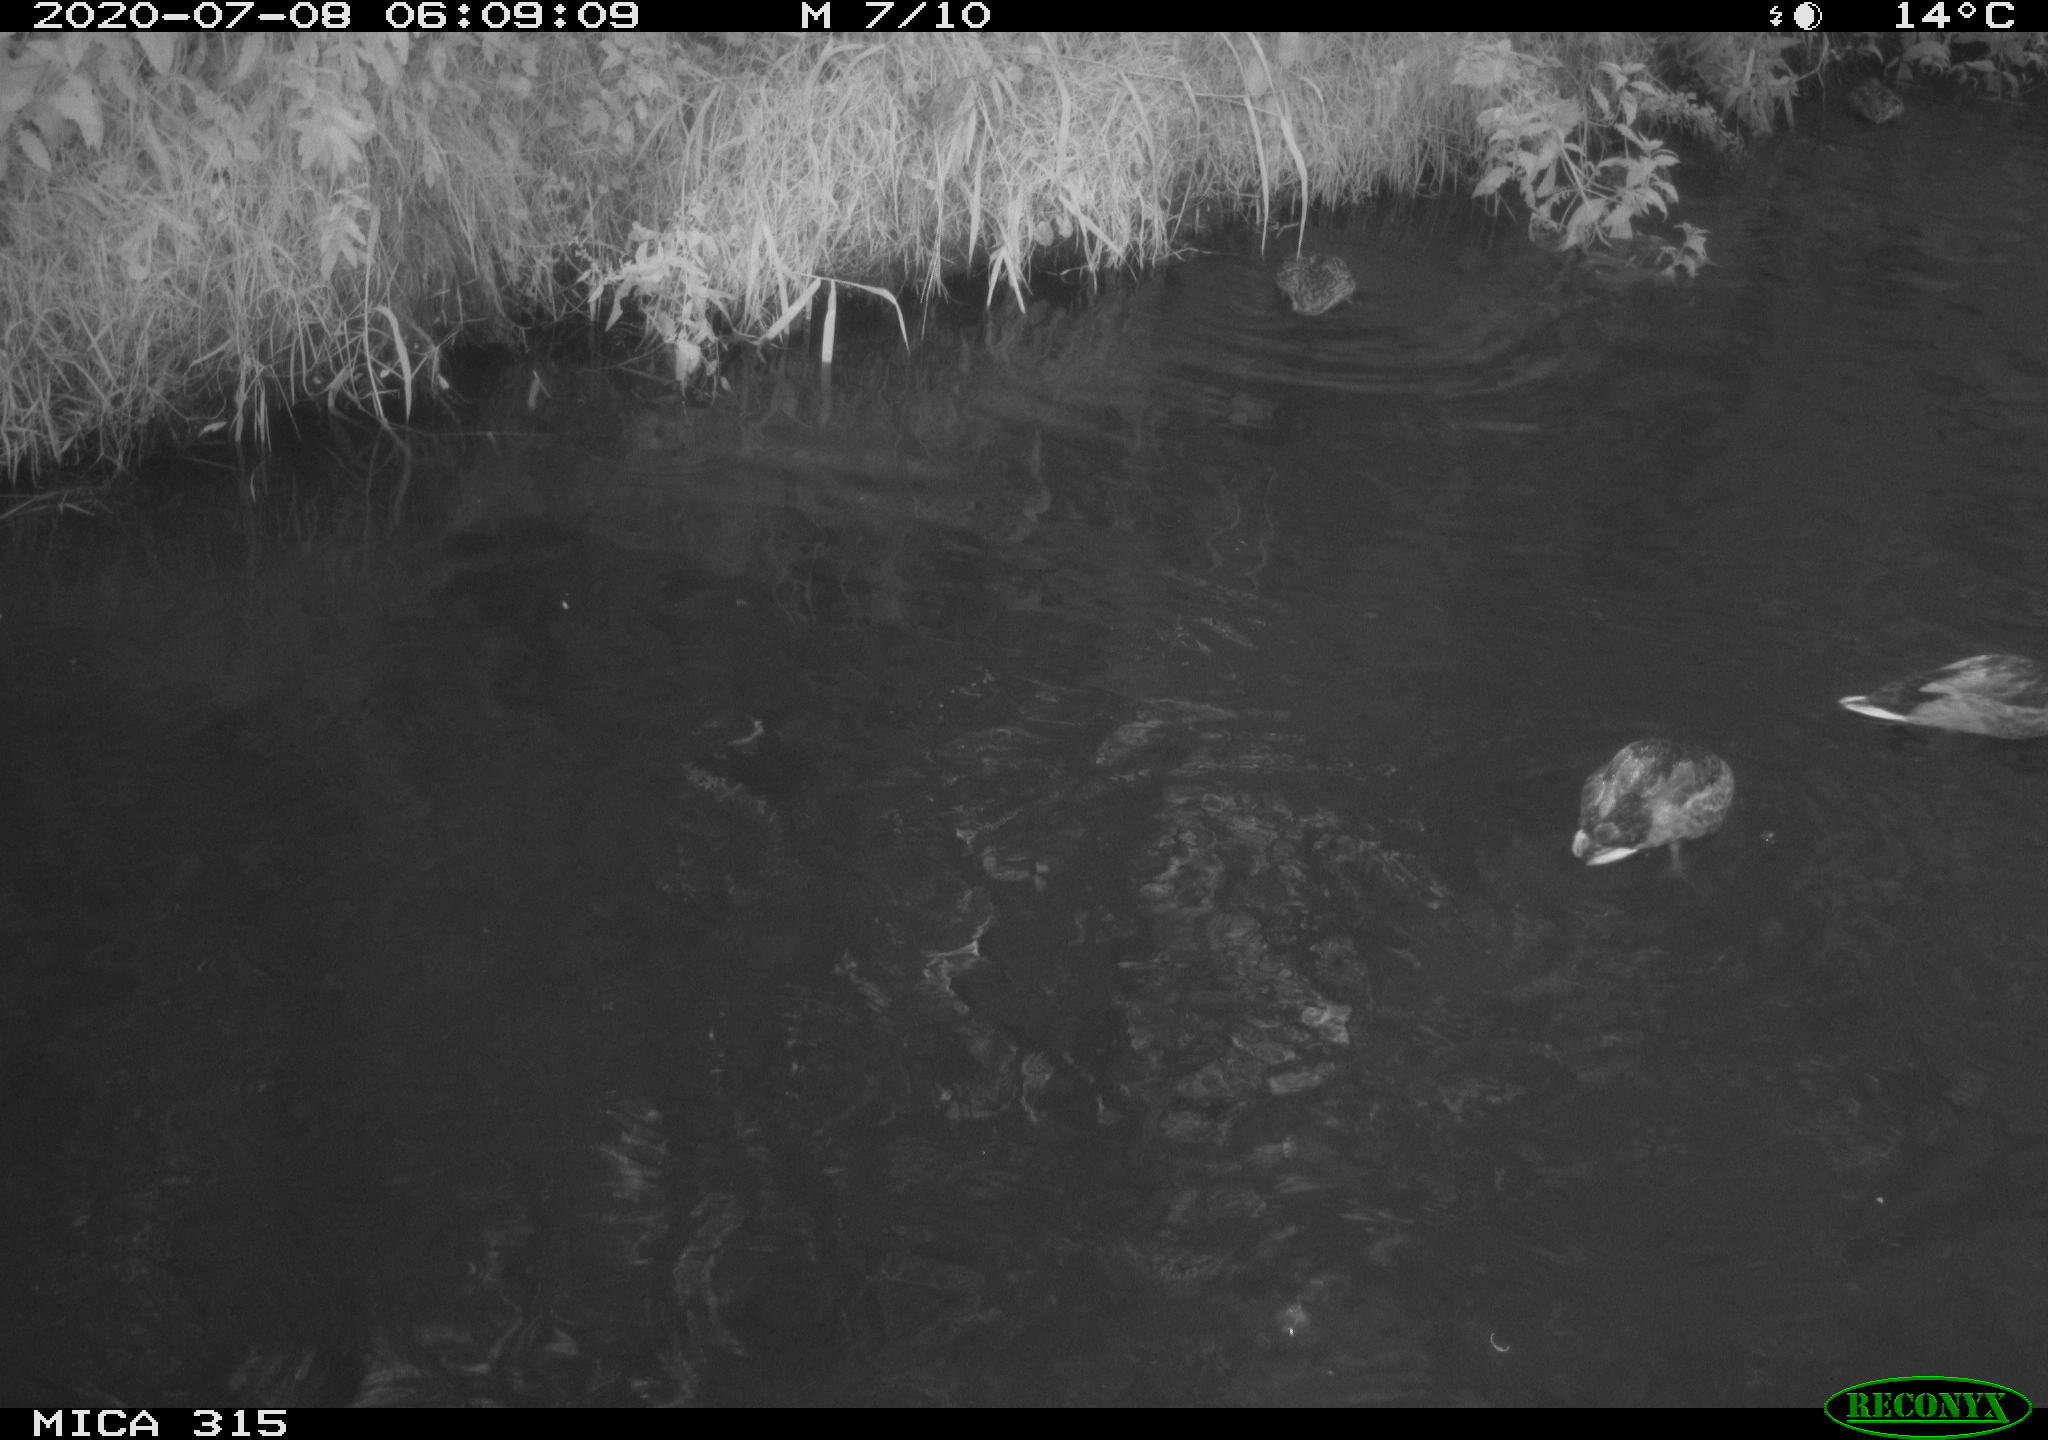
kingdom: Animalia
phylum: Chordata
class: Aves
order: Anseriformes
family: Anatidae
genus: Anas
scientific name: Anas platyrhynchos
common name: Mallard
